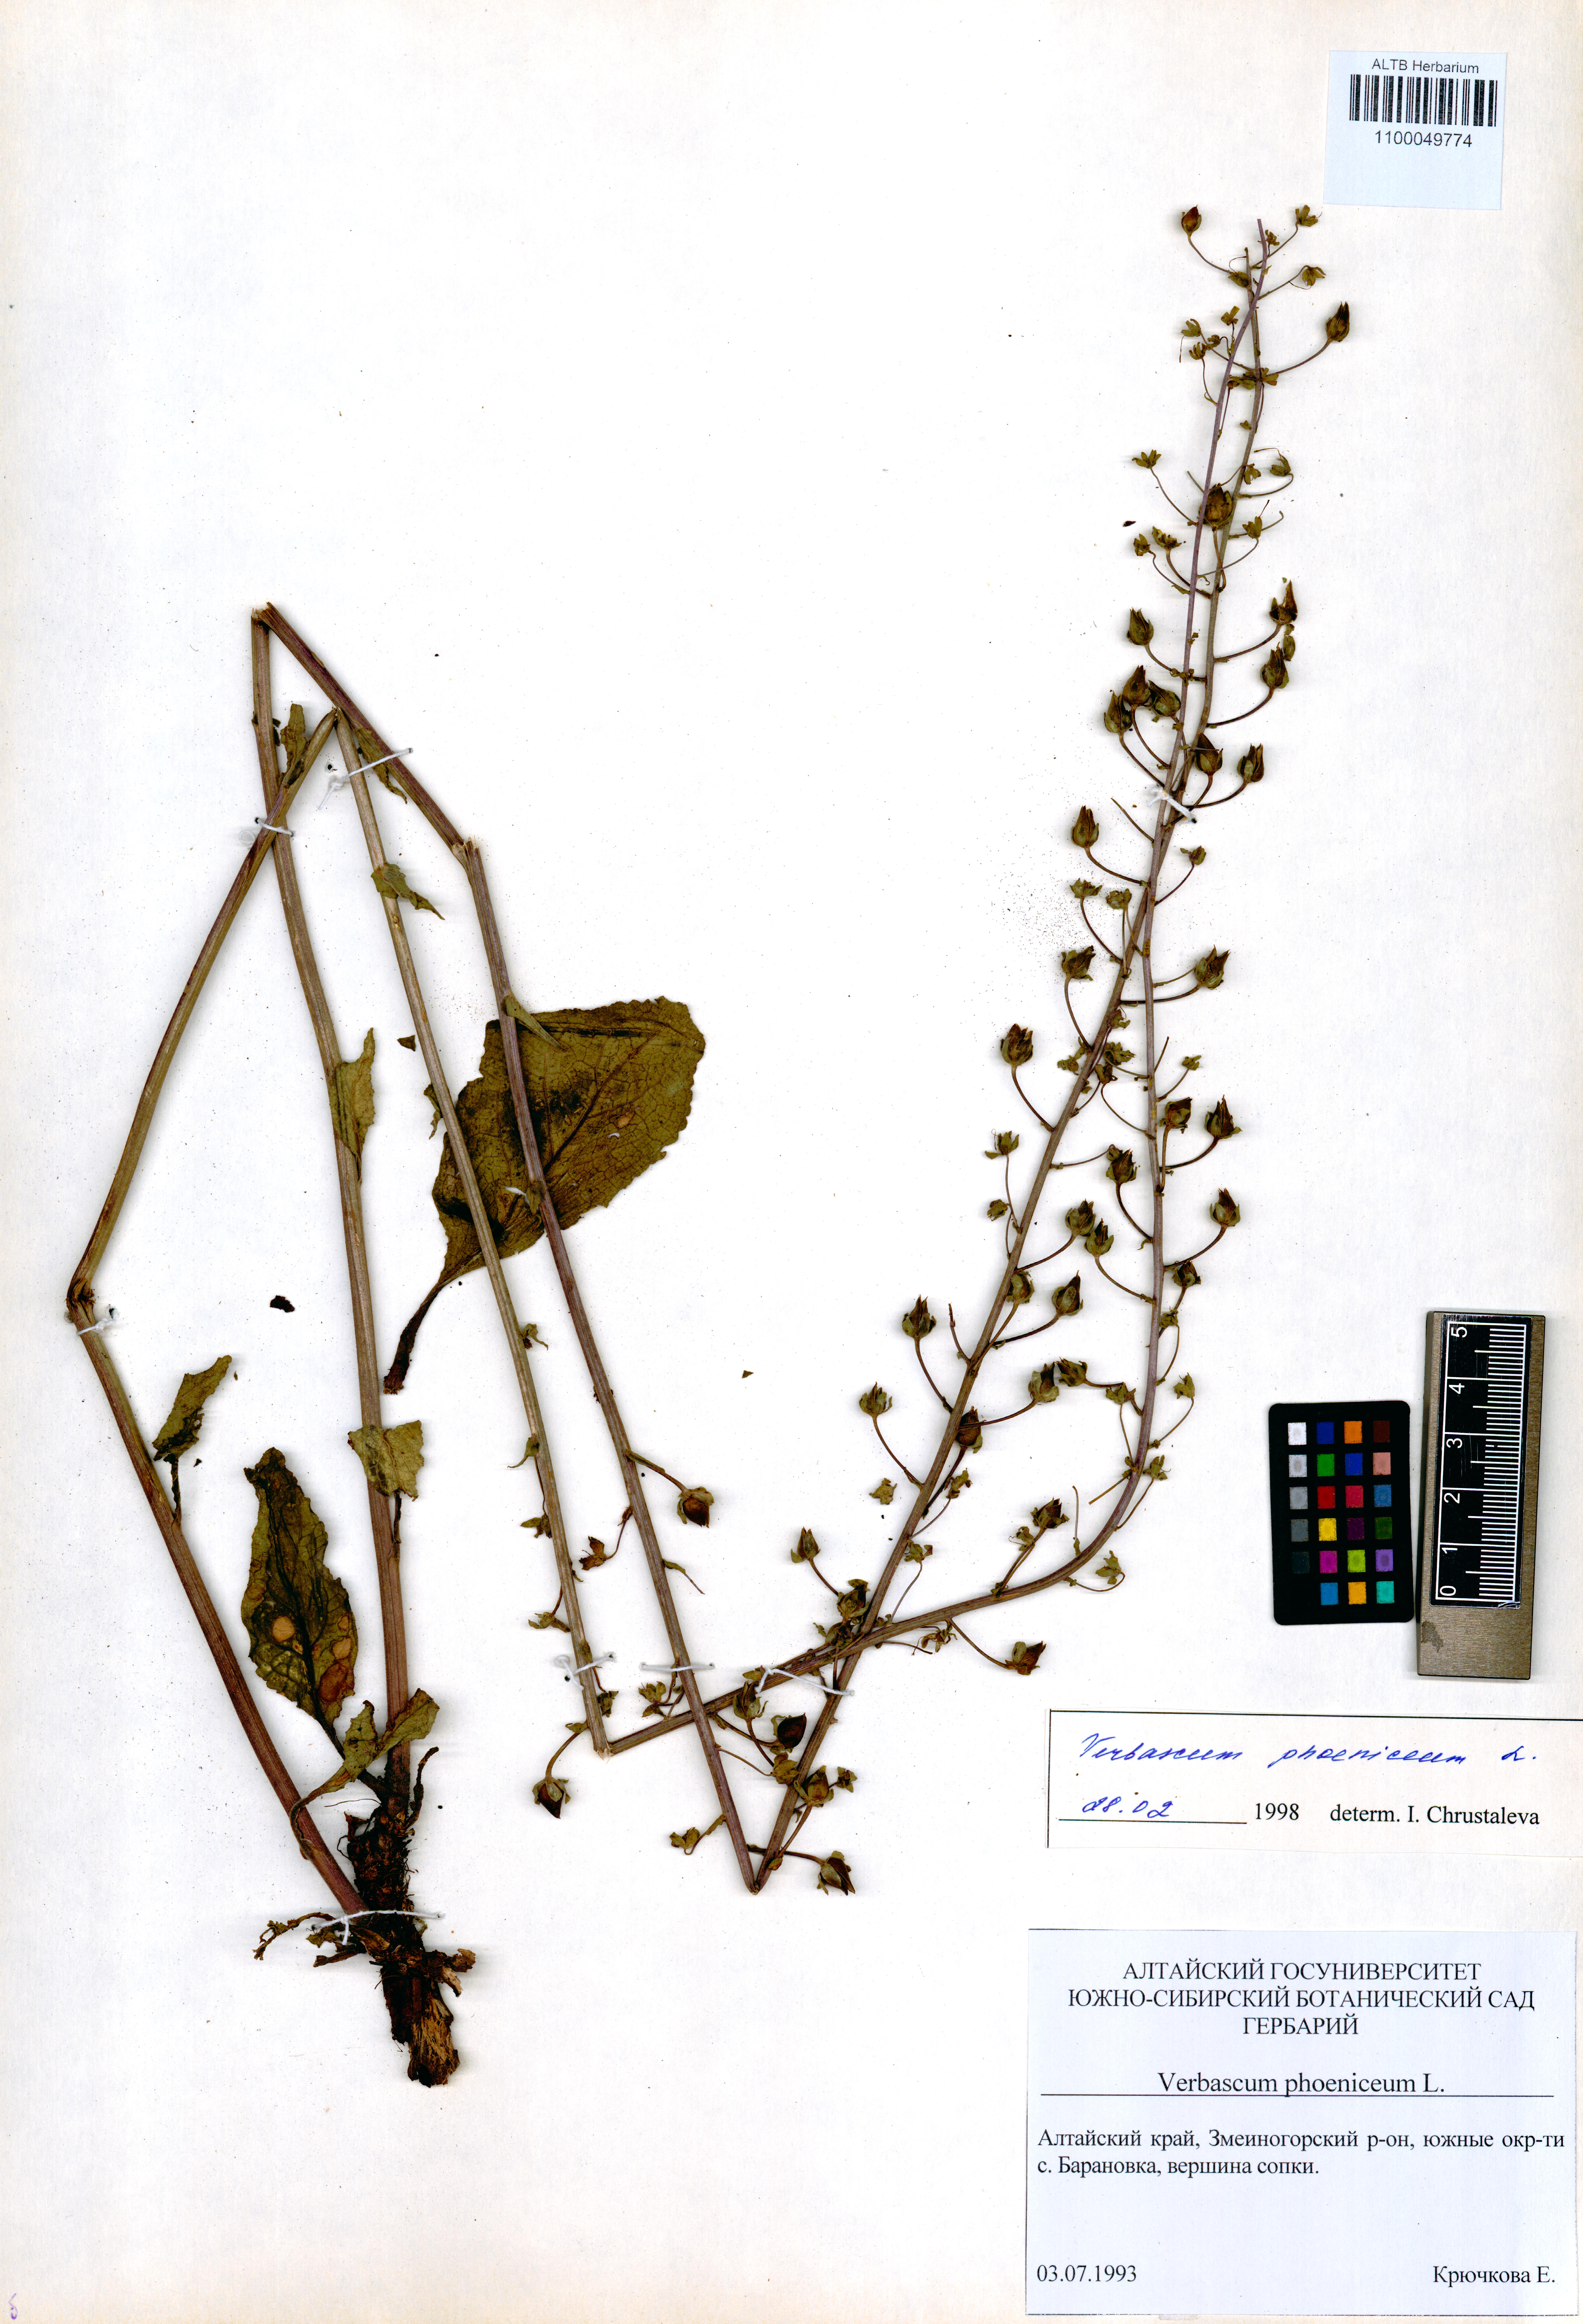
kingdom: Plantae
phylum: Tracheophyta
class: Magnoliopsida
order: Lamiales
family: Scrophulariaceae
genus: Verbascum
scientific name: Verbascum phoeniceum
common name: Purple mullein
